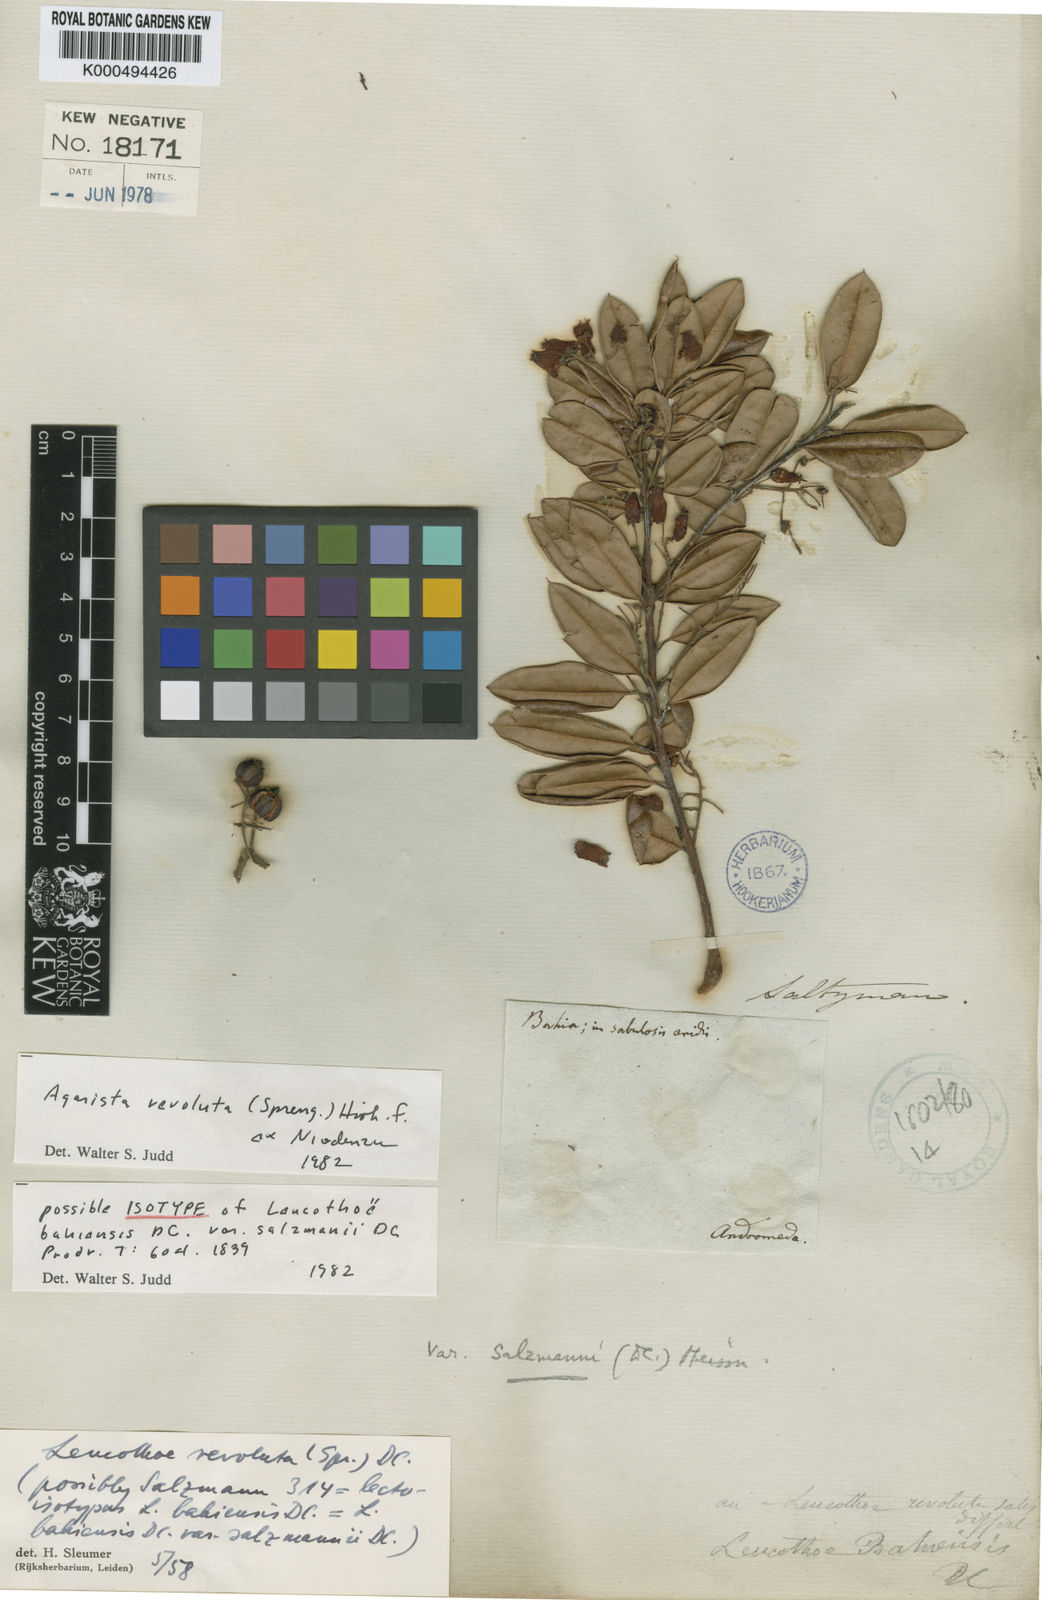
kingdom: Plantae
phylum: Tracheophyta
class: Magnoliopsida
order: Ericales
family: Ericaceae
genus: Agarista
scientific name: Agarista revoluta
